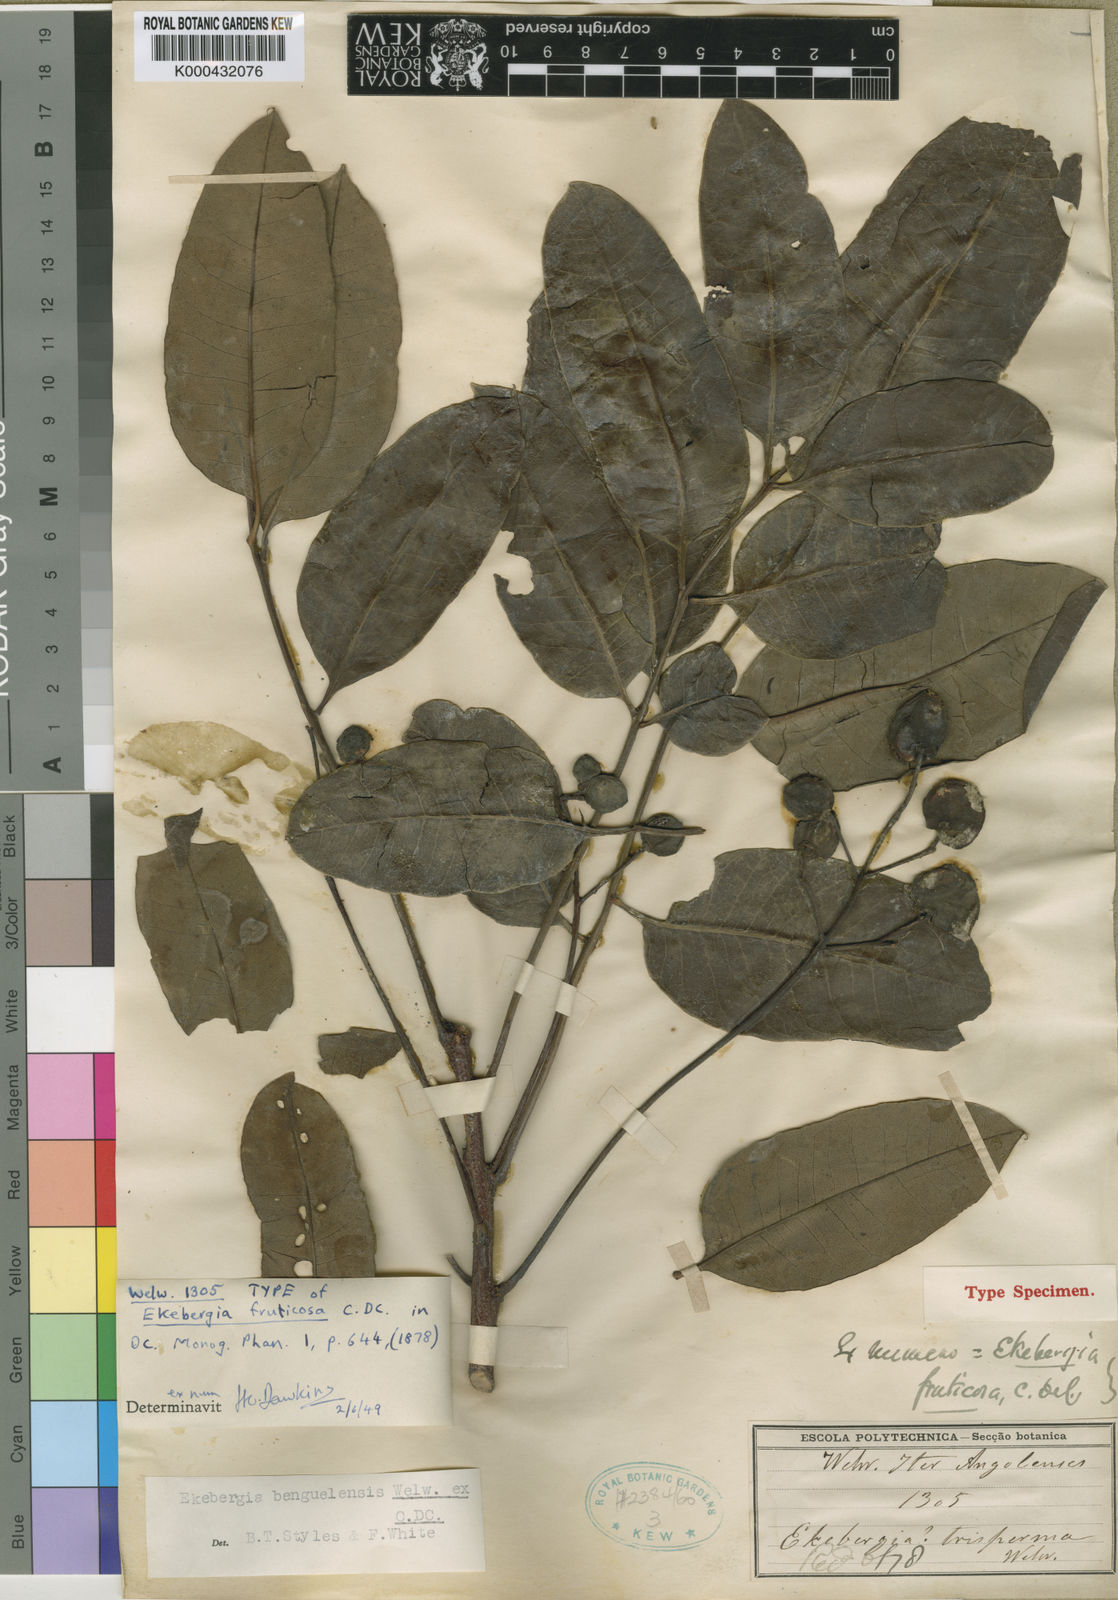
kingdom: Plantae
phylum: Tracheophyta
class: Magnoliopsida
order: Sapindales
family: Meliaceae
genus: Ekebergia
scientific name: Ekebergia benguelensis
